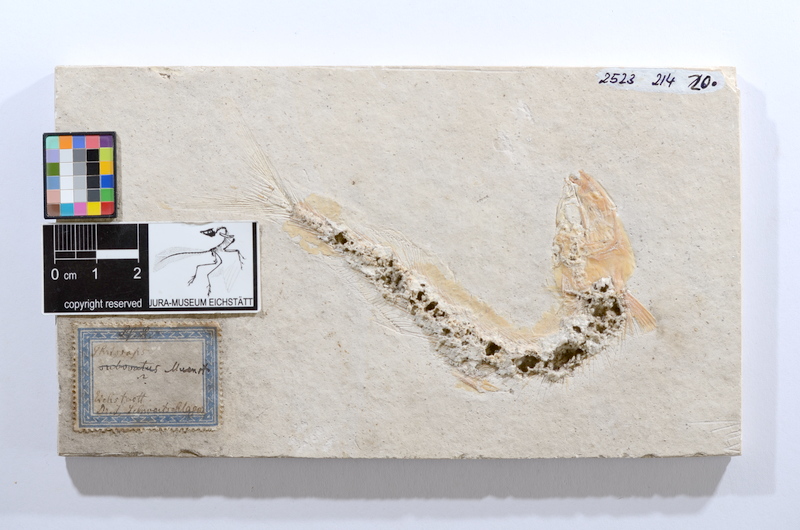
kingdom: Animalia
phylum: Chordata
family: Allothrissopidae
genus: Allothrissops
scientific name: Allothrissops mesogaster
